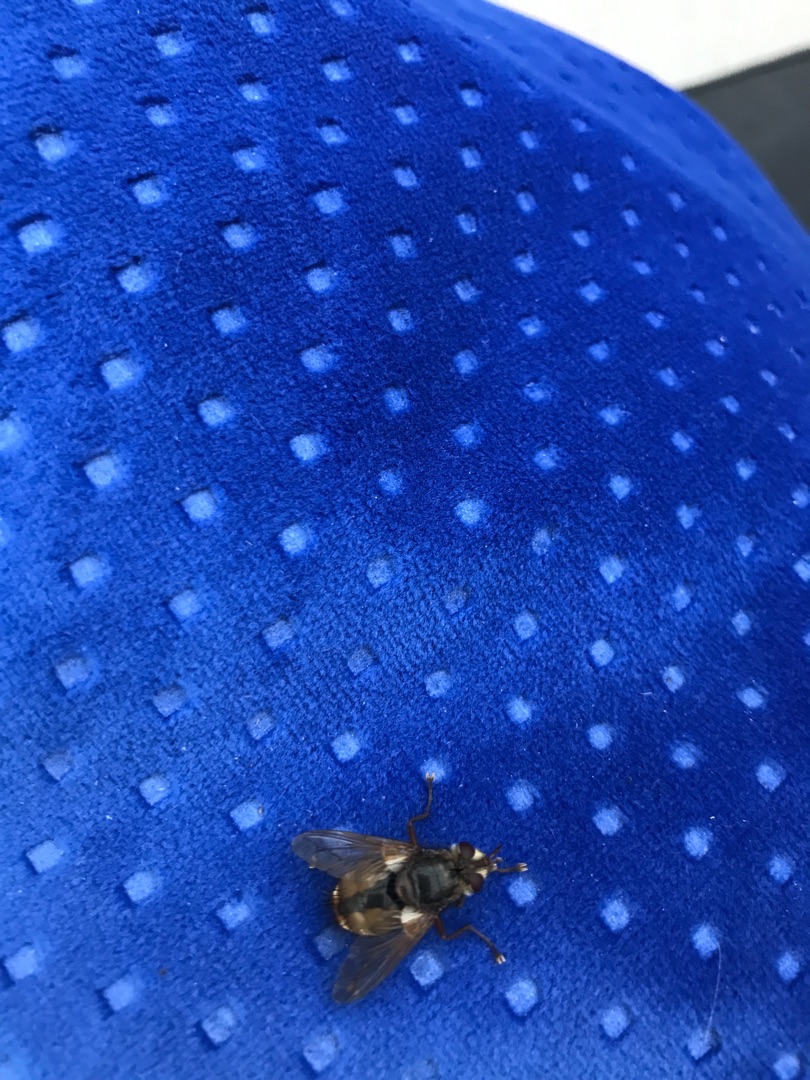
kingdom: Animalia
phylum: Arthropoda
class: Insecta
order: Diptera
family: Tachinidae
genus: Tachina
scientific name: Tachina fera
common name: Mellemfluen oskar
